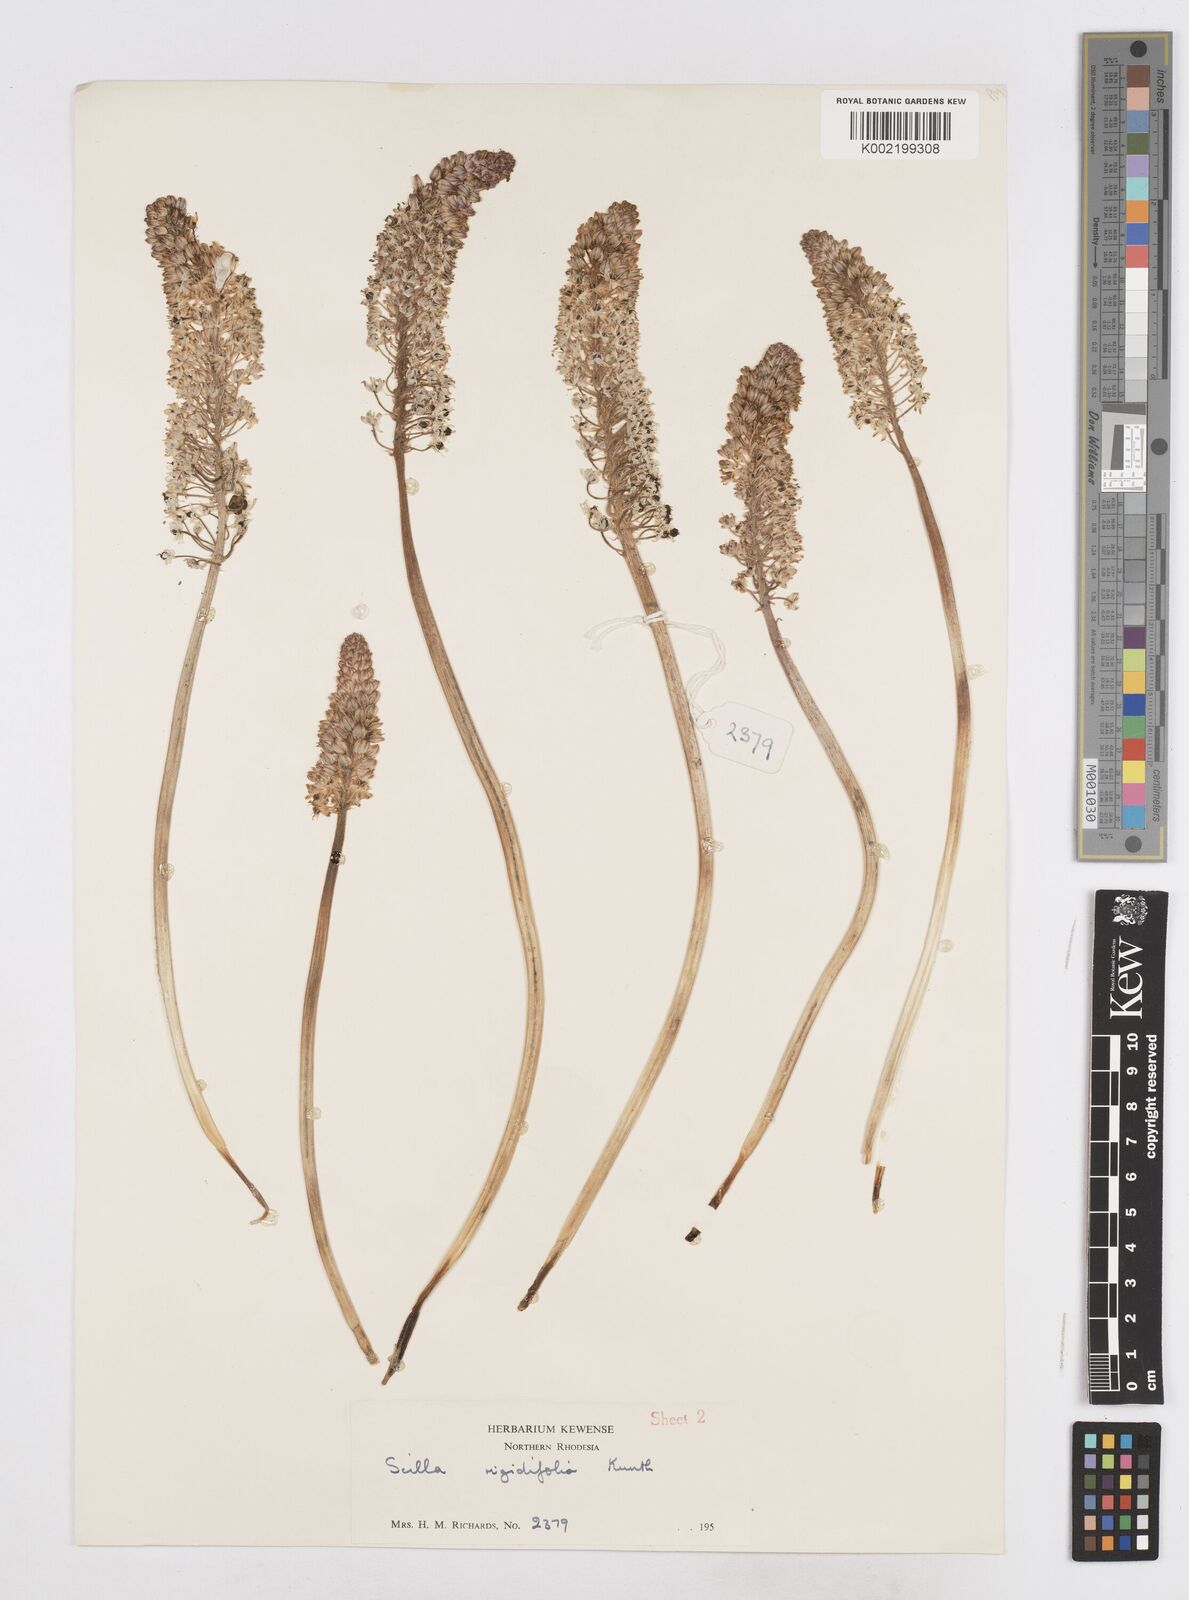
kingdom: Plantae
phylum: Tracheophyta
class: Liliopsida
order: Asparagales
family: Asparagaceae
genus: Schizocarphus
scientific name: Schizocarphus nervosus
